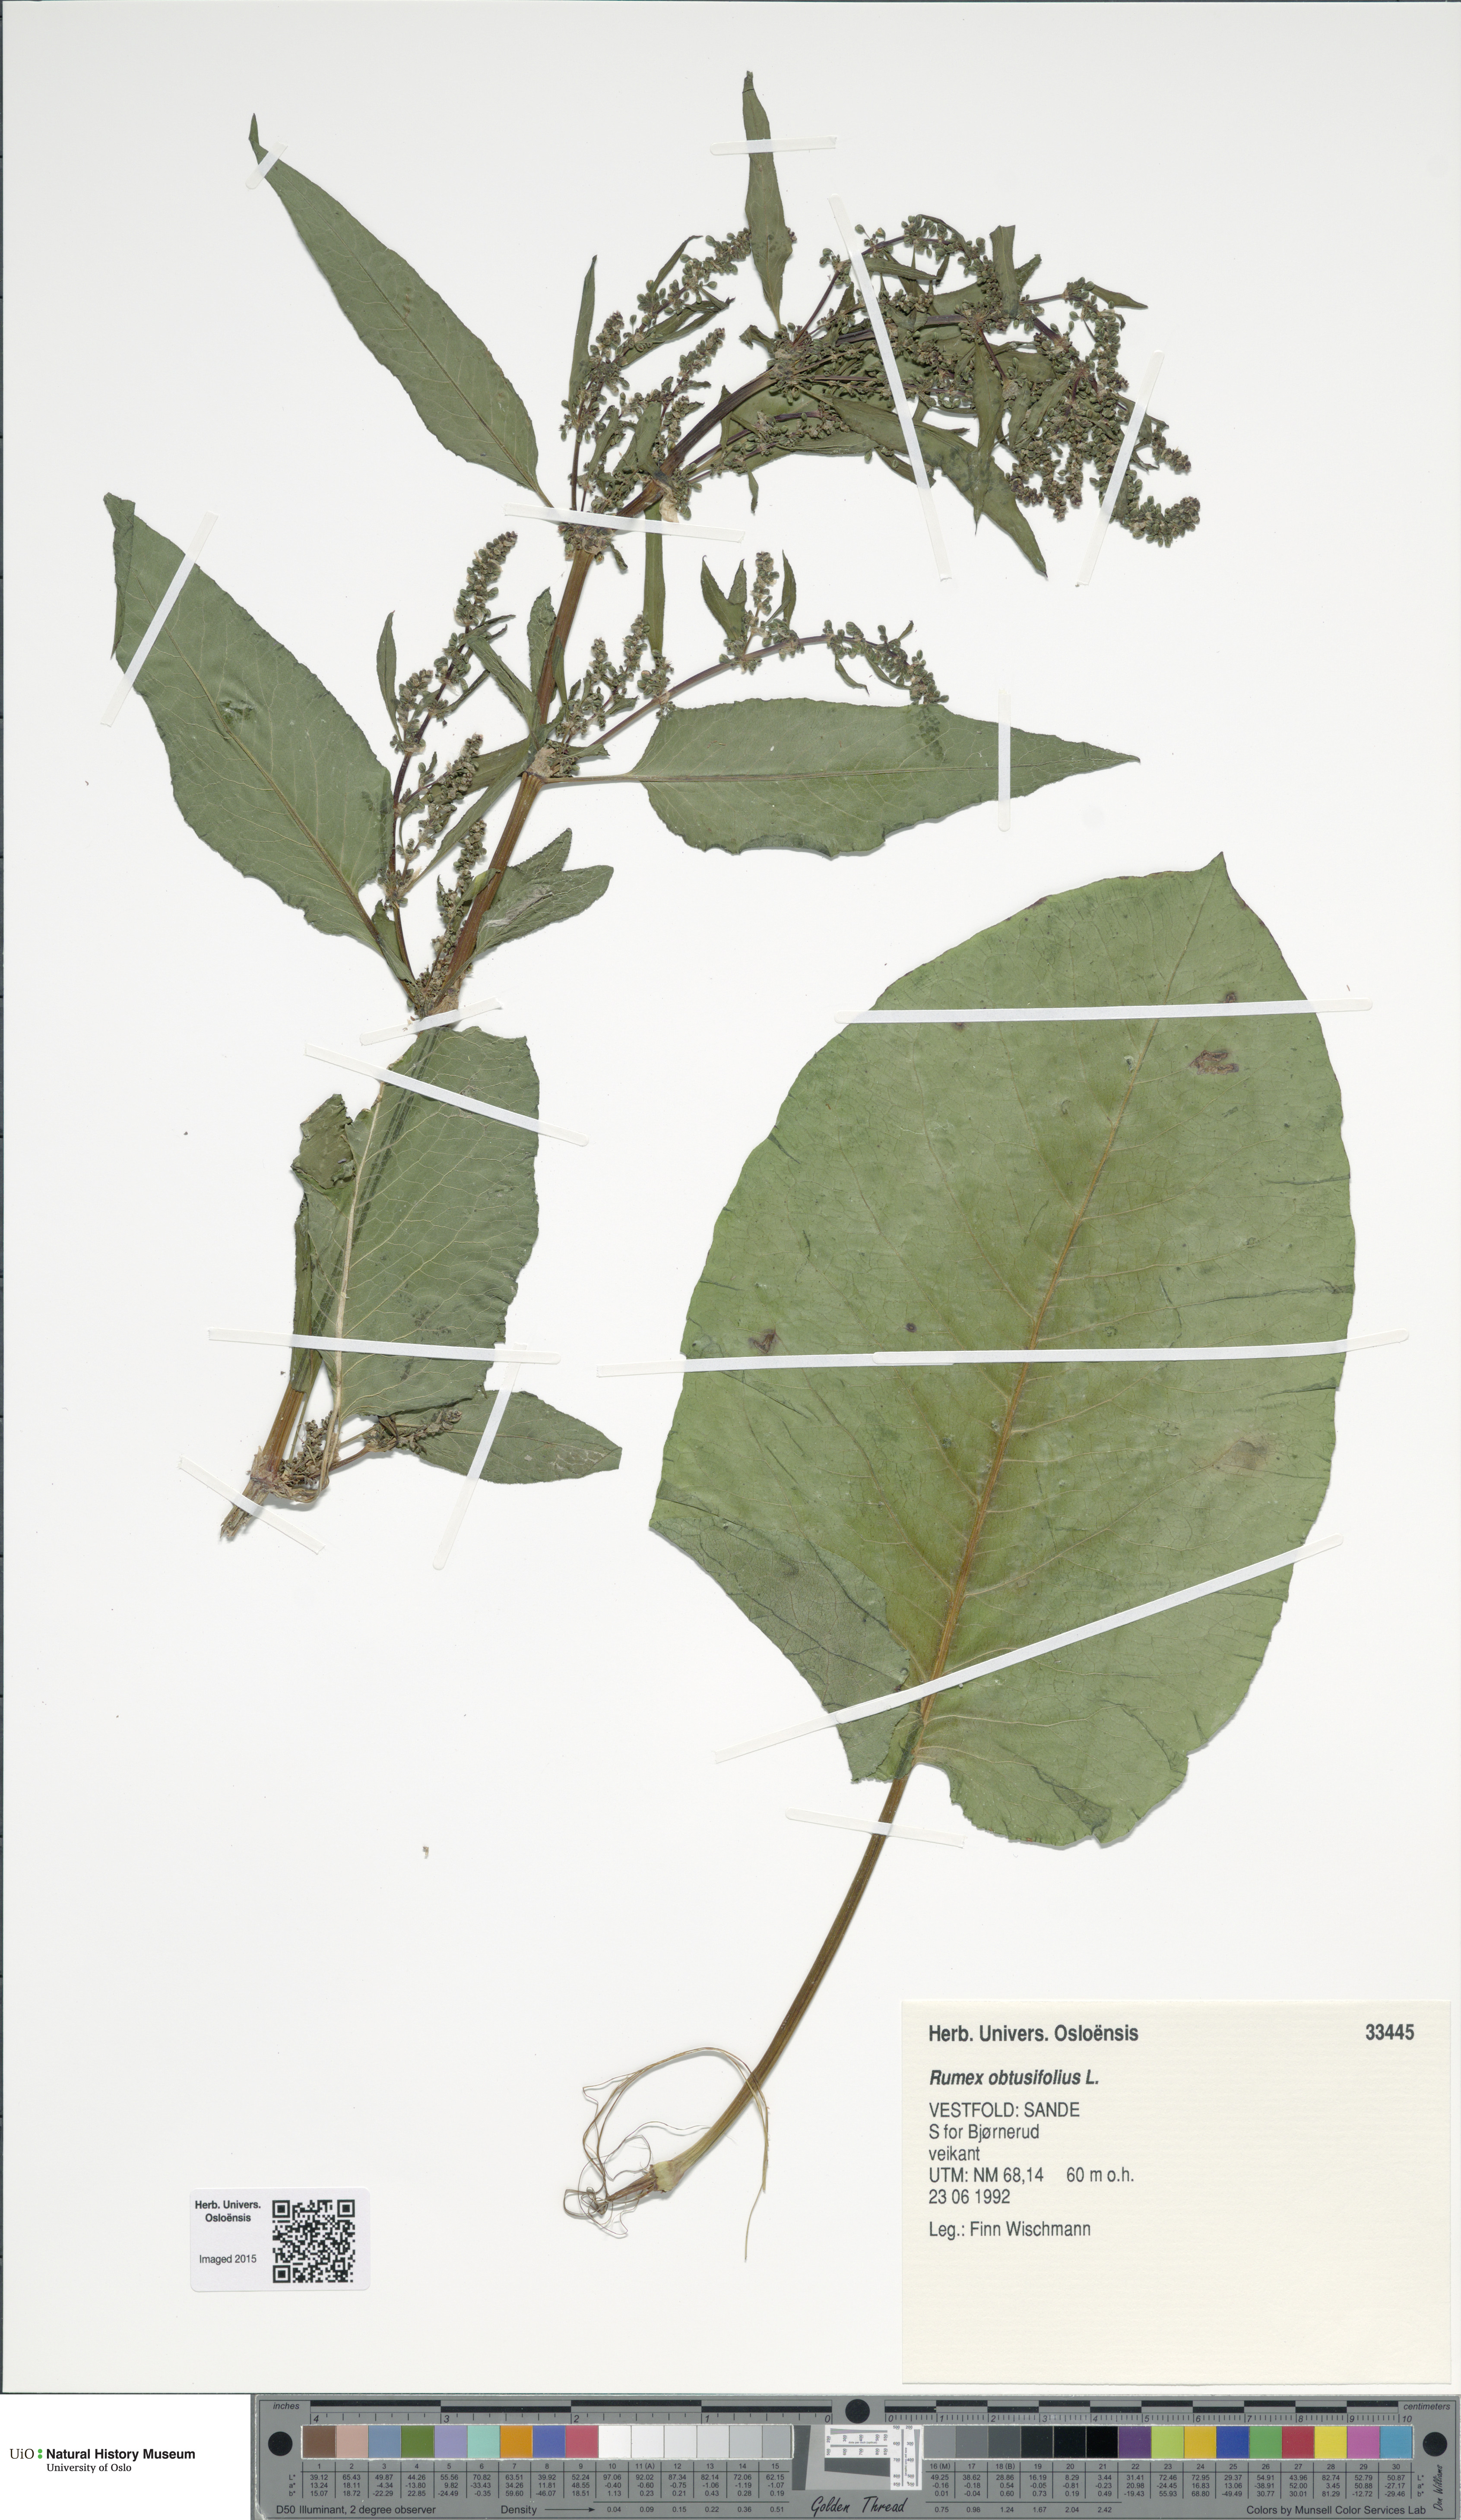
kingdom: Plantae
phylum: Tracheophyta
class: Magnoliopsida
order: Caryophyllales
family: Polygonaceae
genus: Rumex
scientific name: Rumex obtusifolius
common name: Bitter dock
